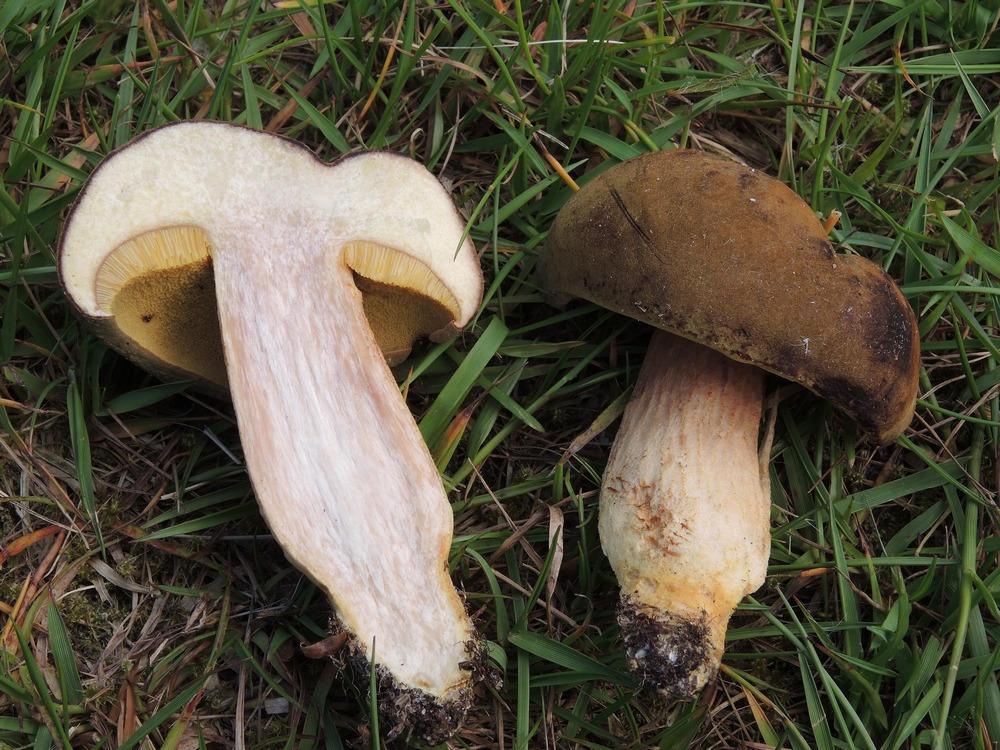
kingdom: Fungi
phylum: Basidiomycota
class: Agaricomycetes
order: Boletales
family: Boletaceae
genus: Xerocomus
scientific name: Xerocomus ferrugineus
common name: vaskeskinds-rørhat
